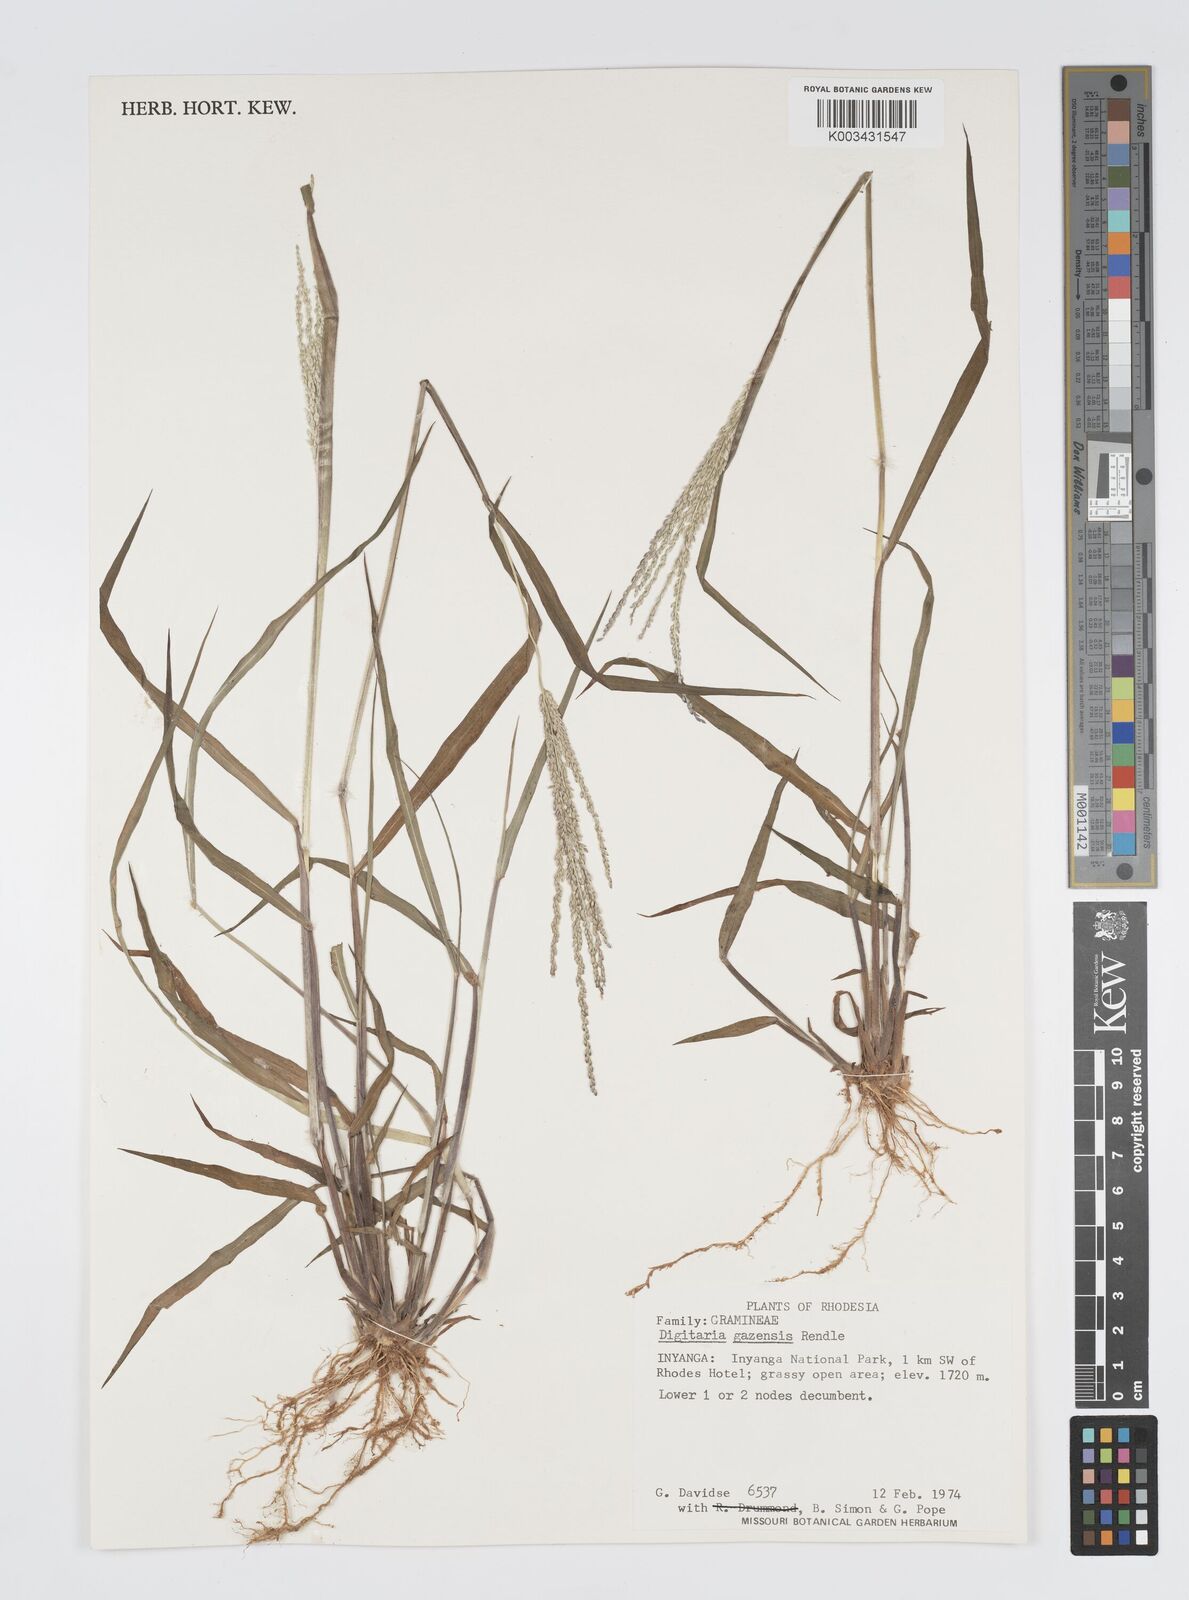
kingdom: Plantae
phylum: Tracheophyta
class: Liliopsida
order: Poales
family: Poaceae
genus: Digitaria
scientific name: Digitaria gazensis
